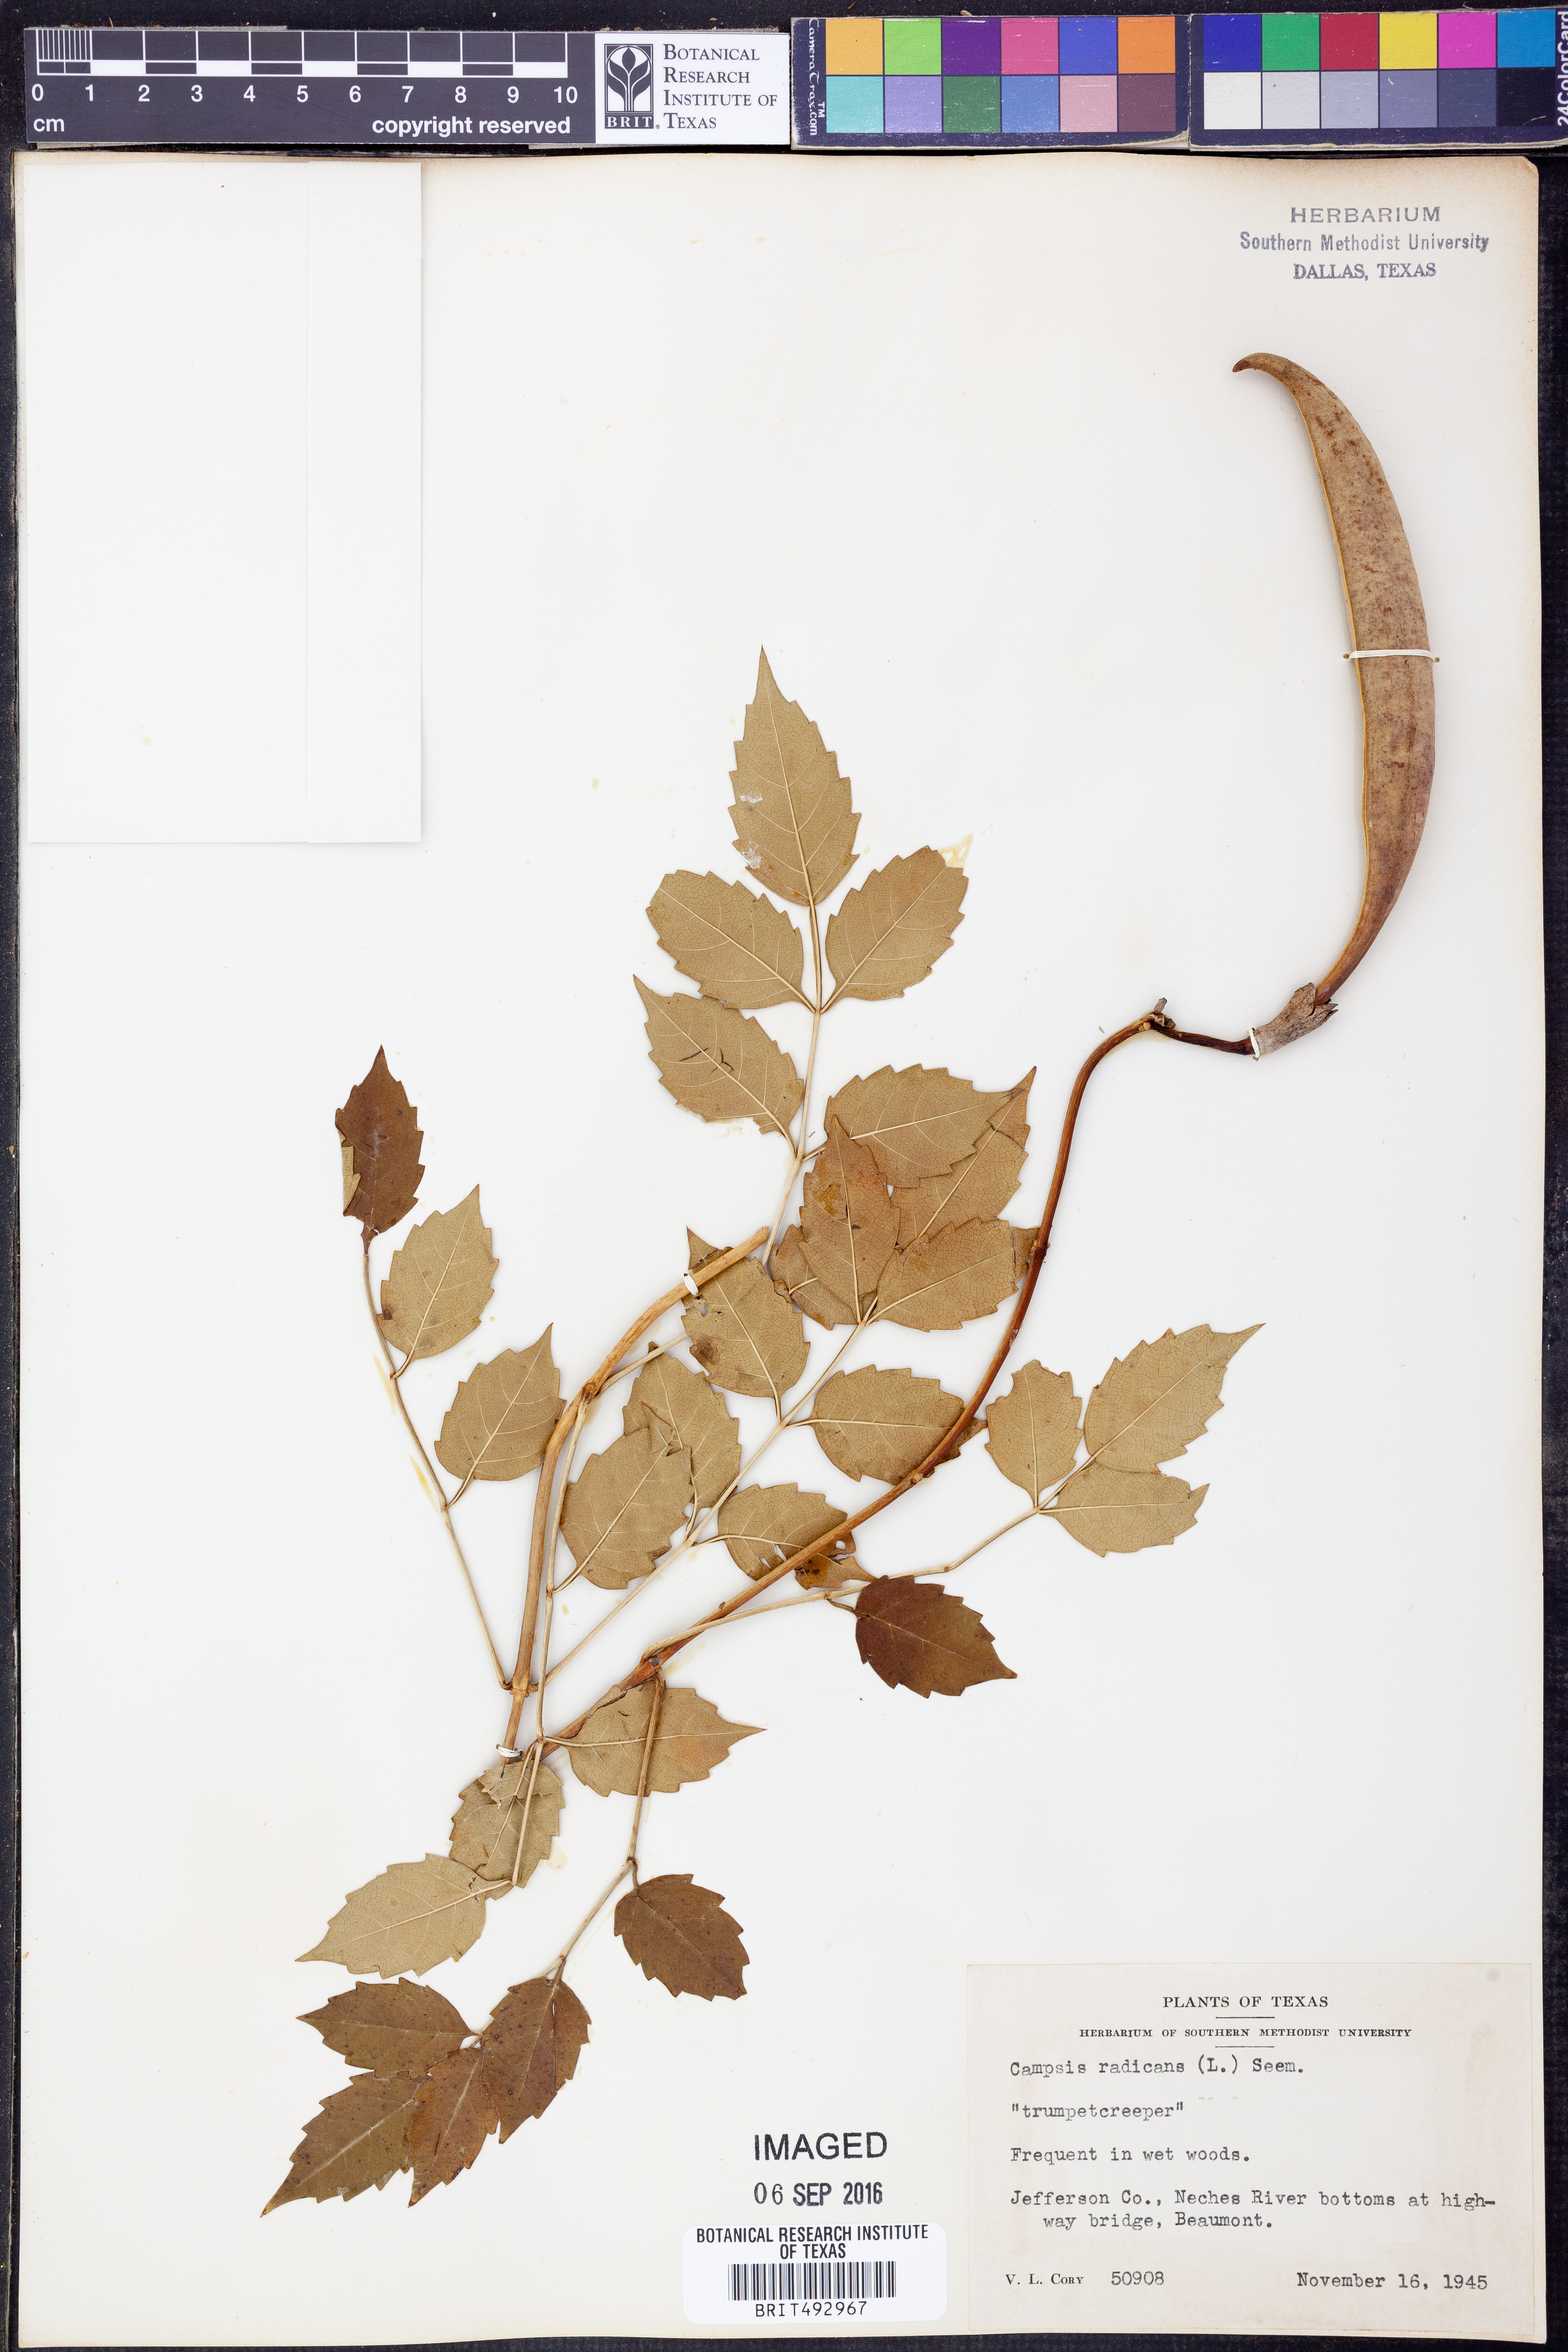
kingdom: Plantae
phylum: Tracheophyta
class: Magnoliopsida
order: Lamiales
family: Bignoniaceae
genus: Campsis
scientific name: Campsis radicans
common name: Trumpet-creeper
